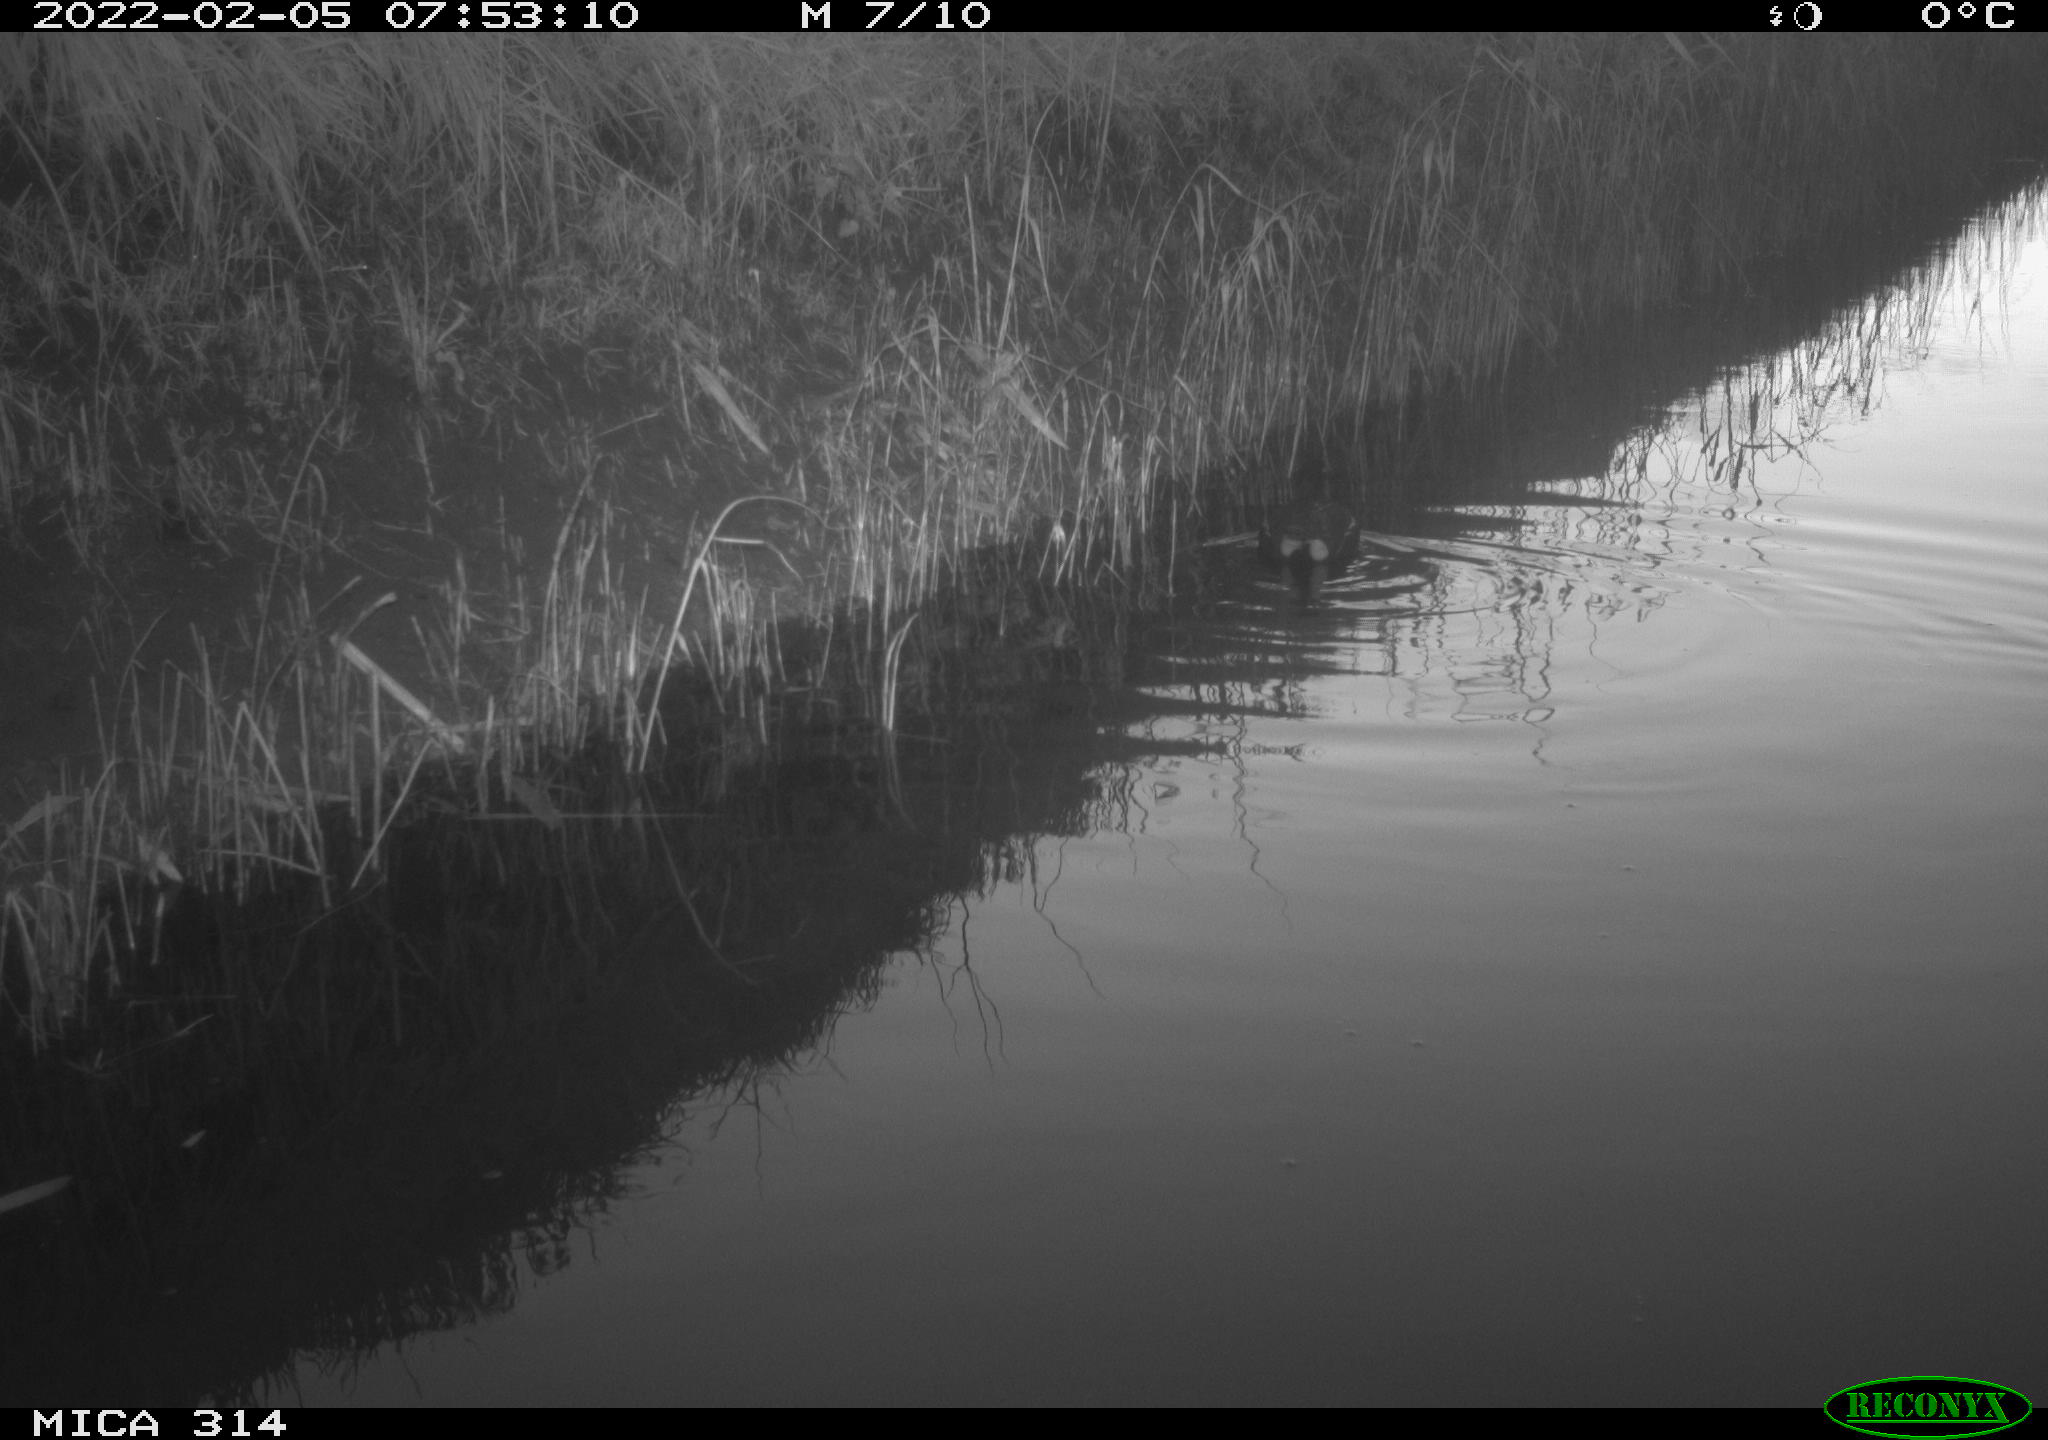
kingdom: Animalia
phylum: Chordata
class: Aves
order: Gruiformes
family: Rallidae
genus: Gallinula
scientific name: Gallinula chloropus
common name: Common moorhen
